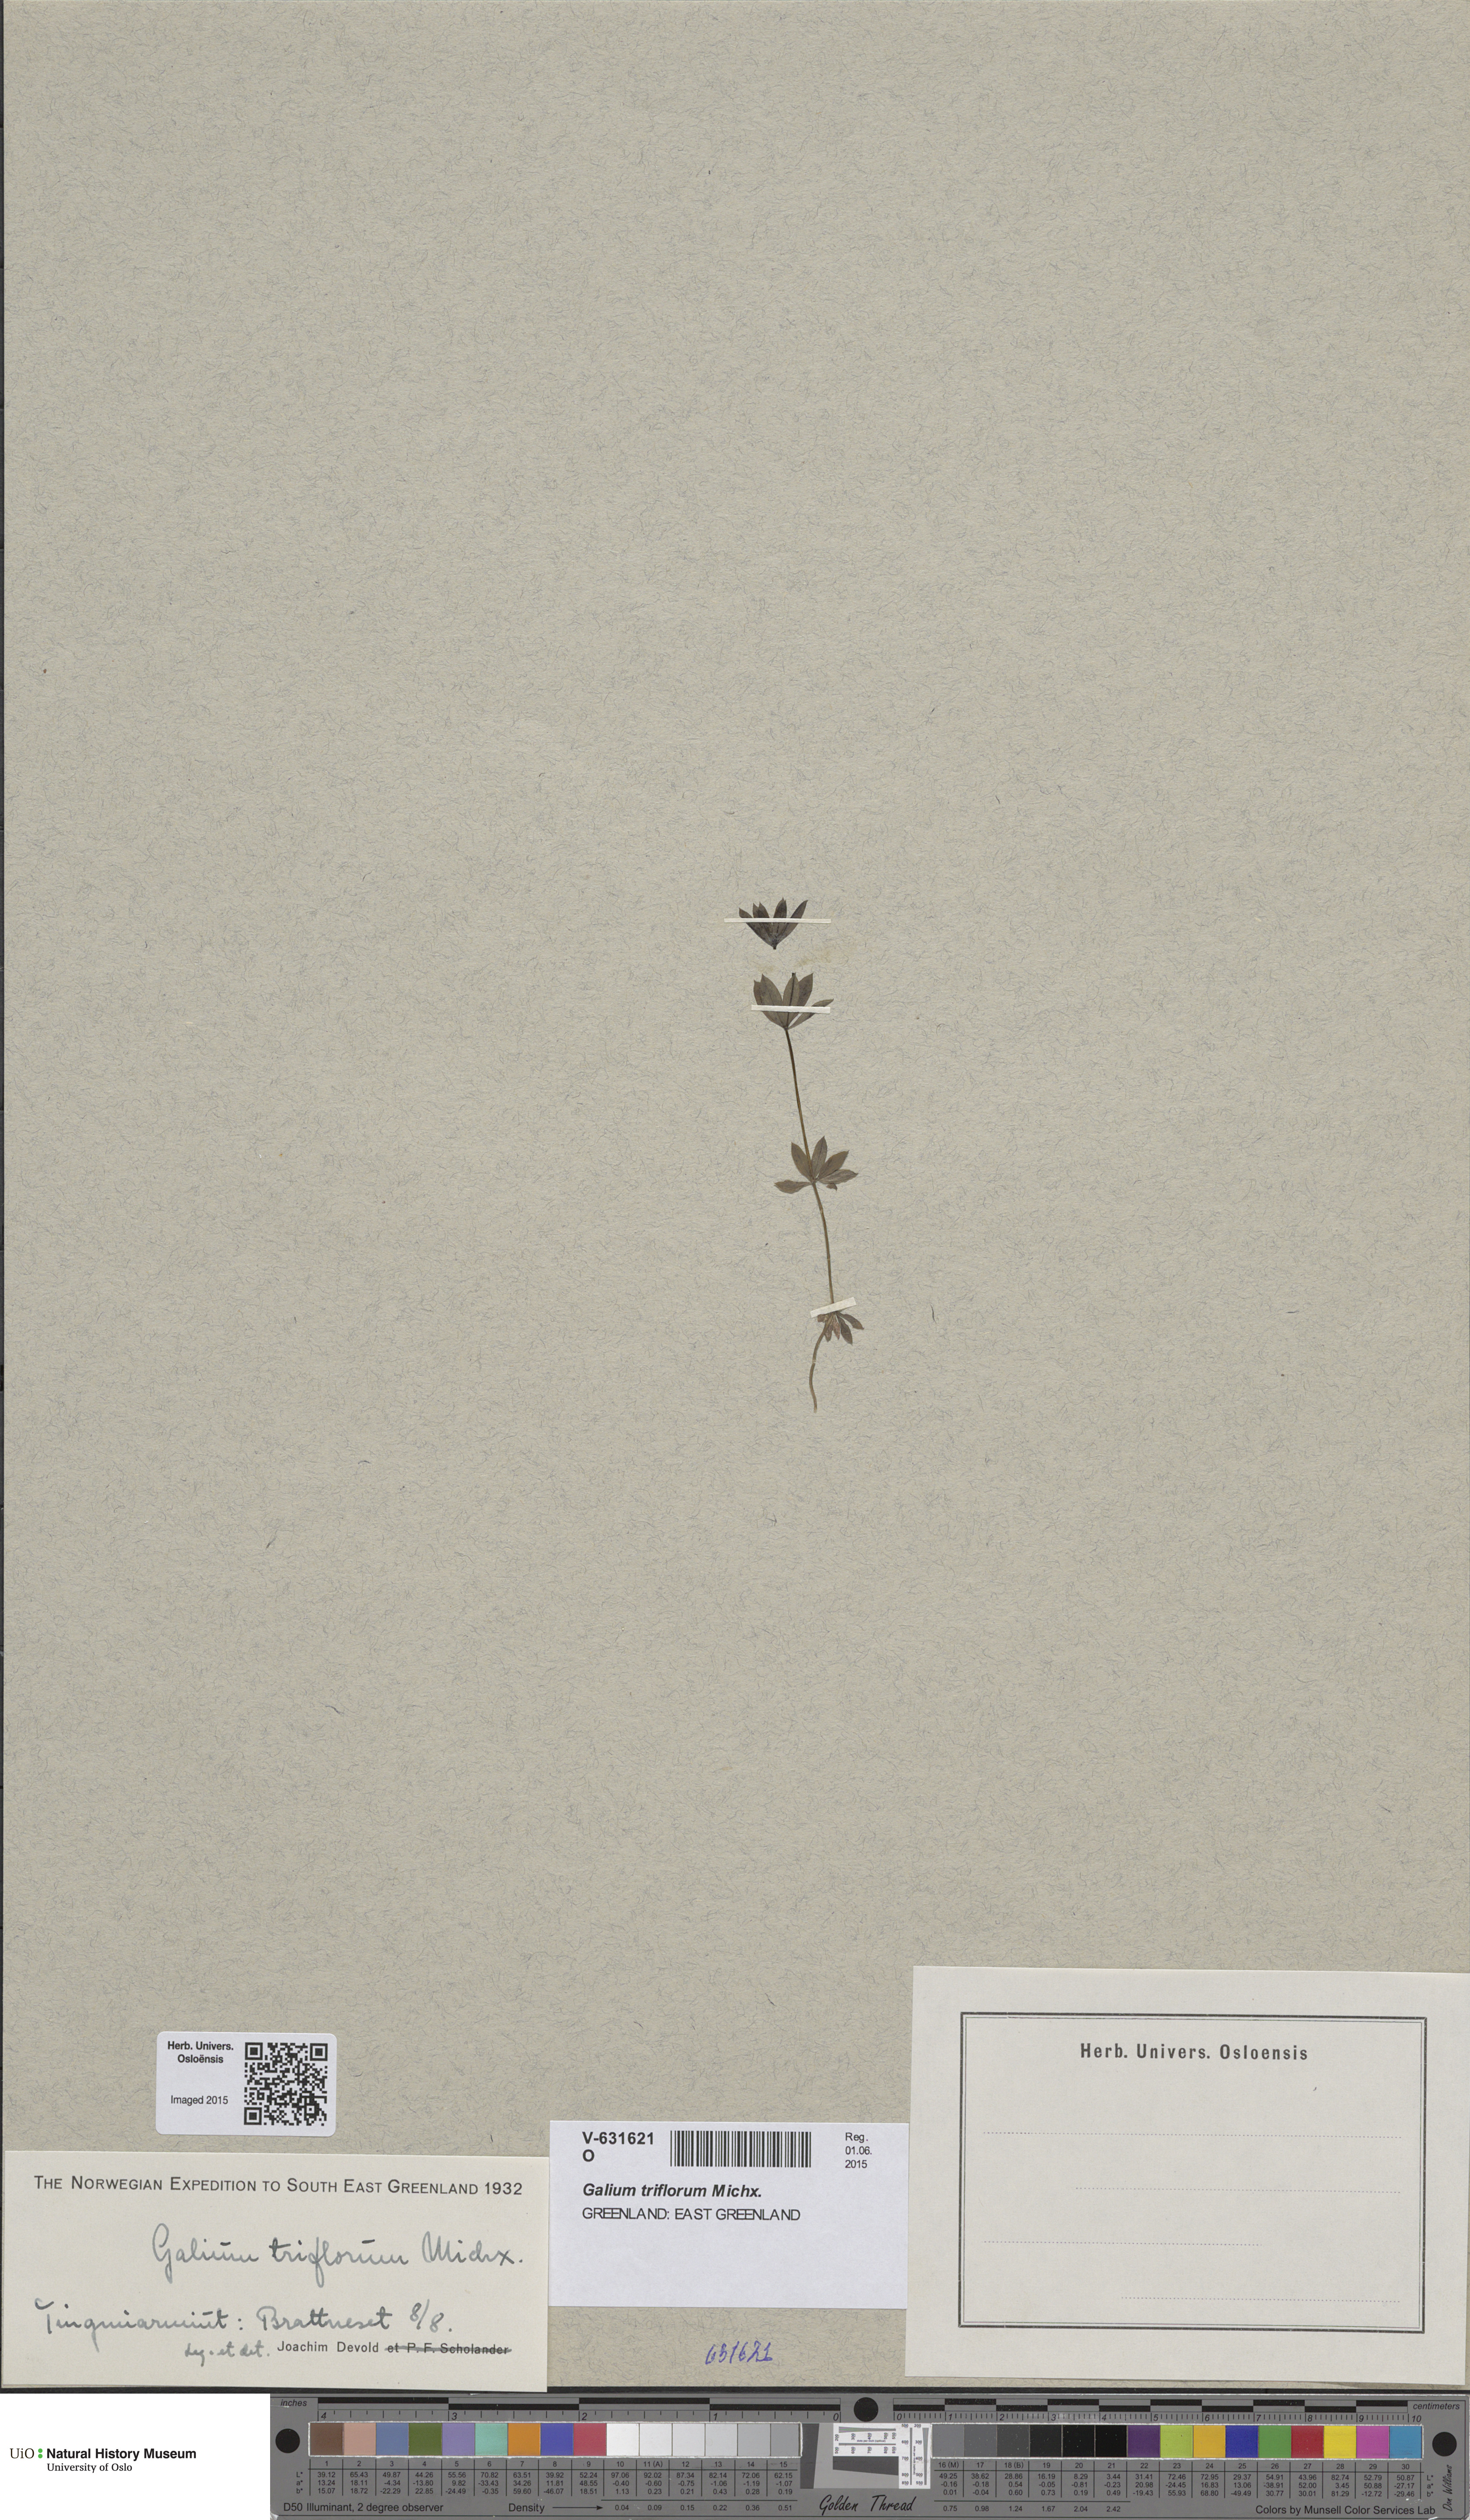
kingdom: Plantae
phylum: Tracheophyta
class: Magnoliopsida
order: Gentianales
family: Rubiaceae
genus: Galium
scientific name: Galium triflorum
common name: Fragrant bedstraw
